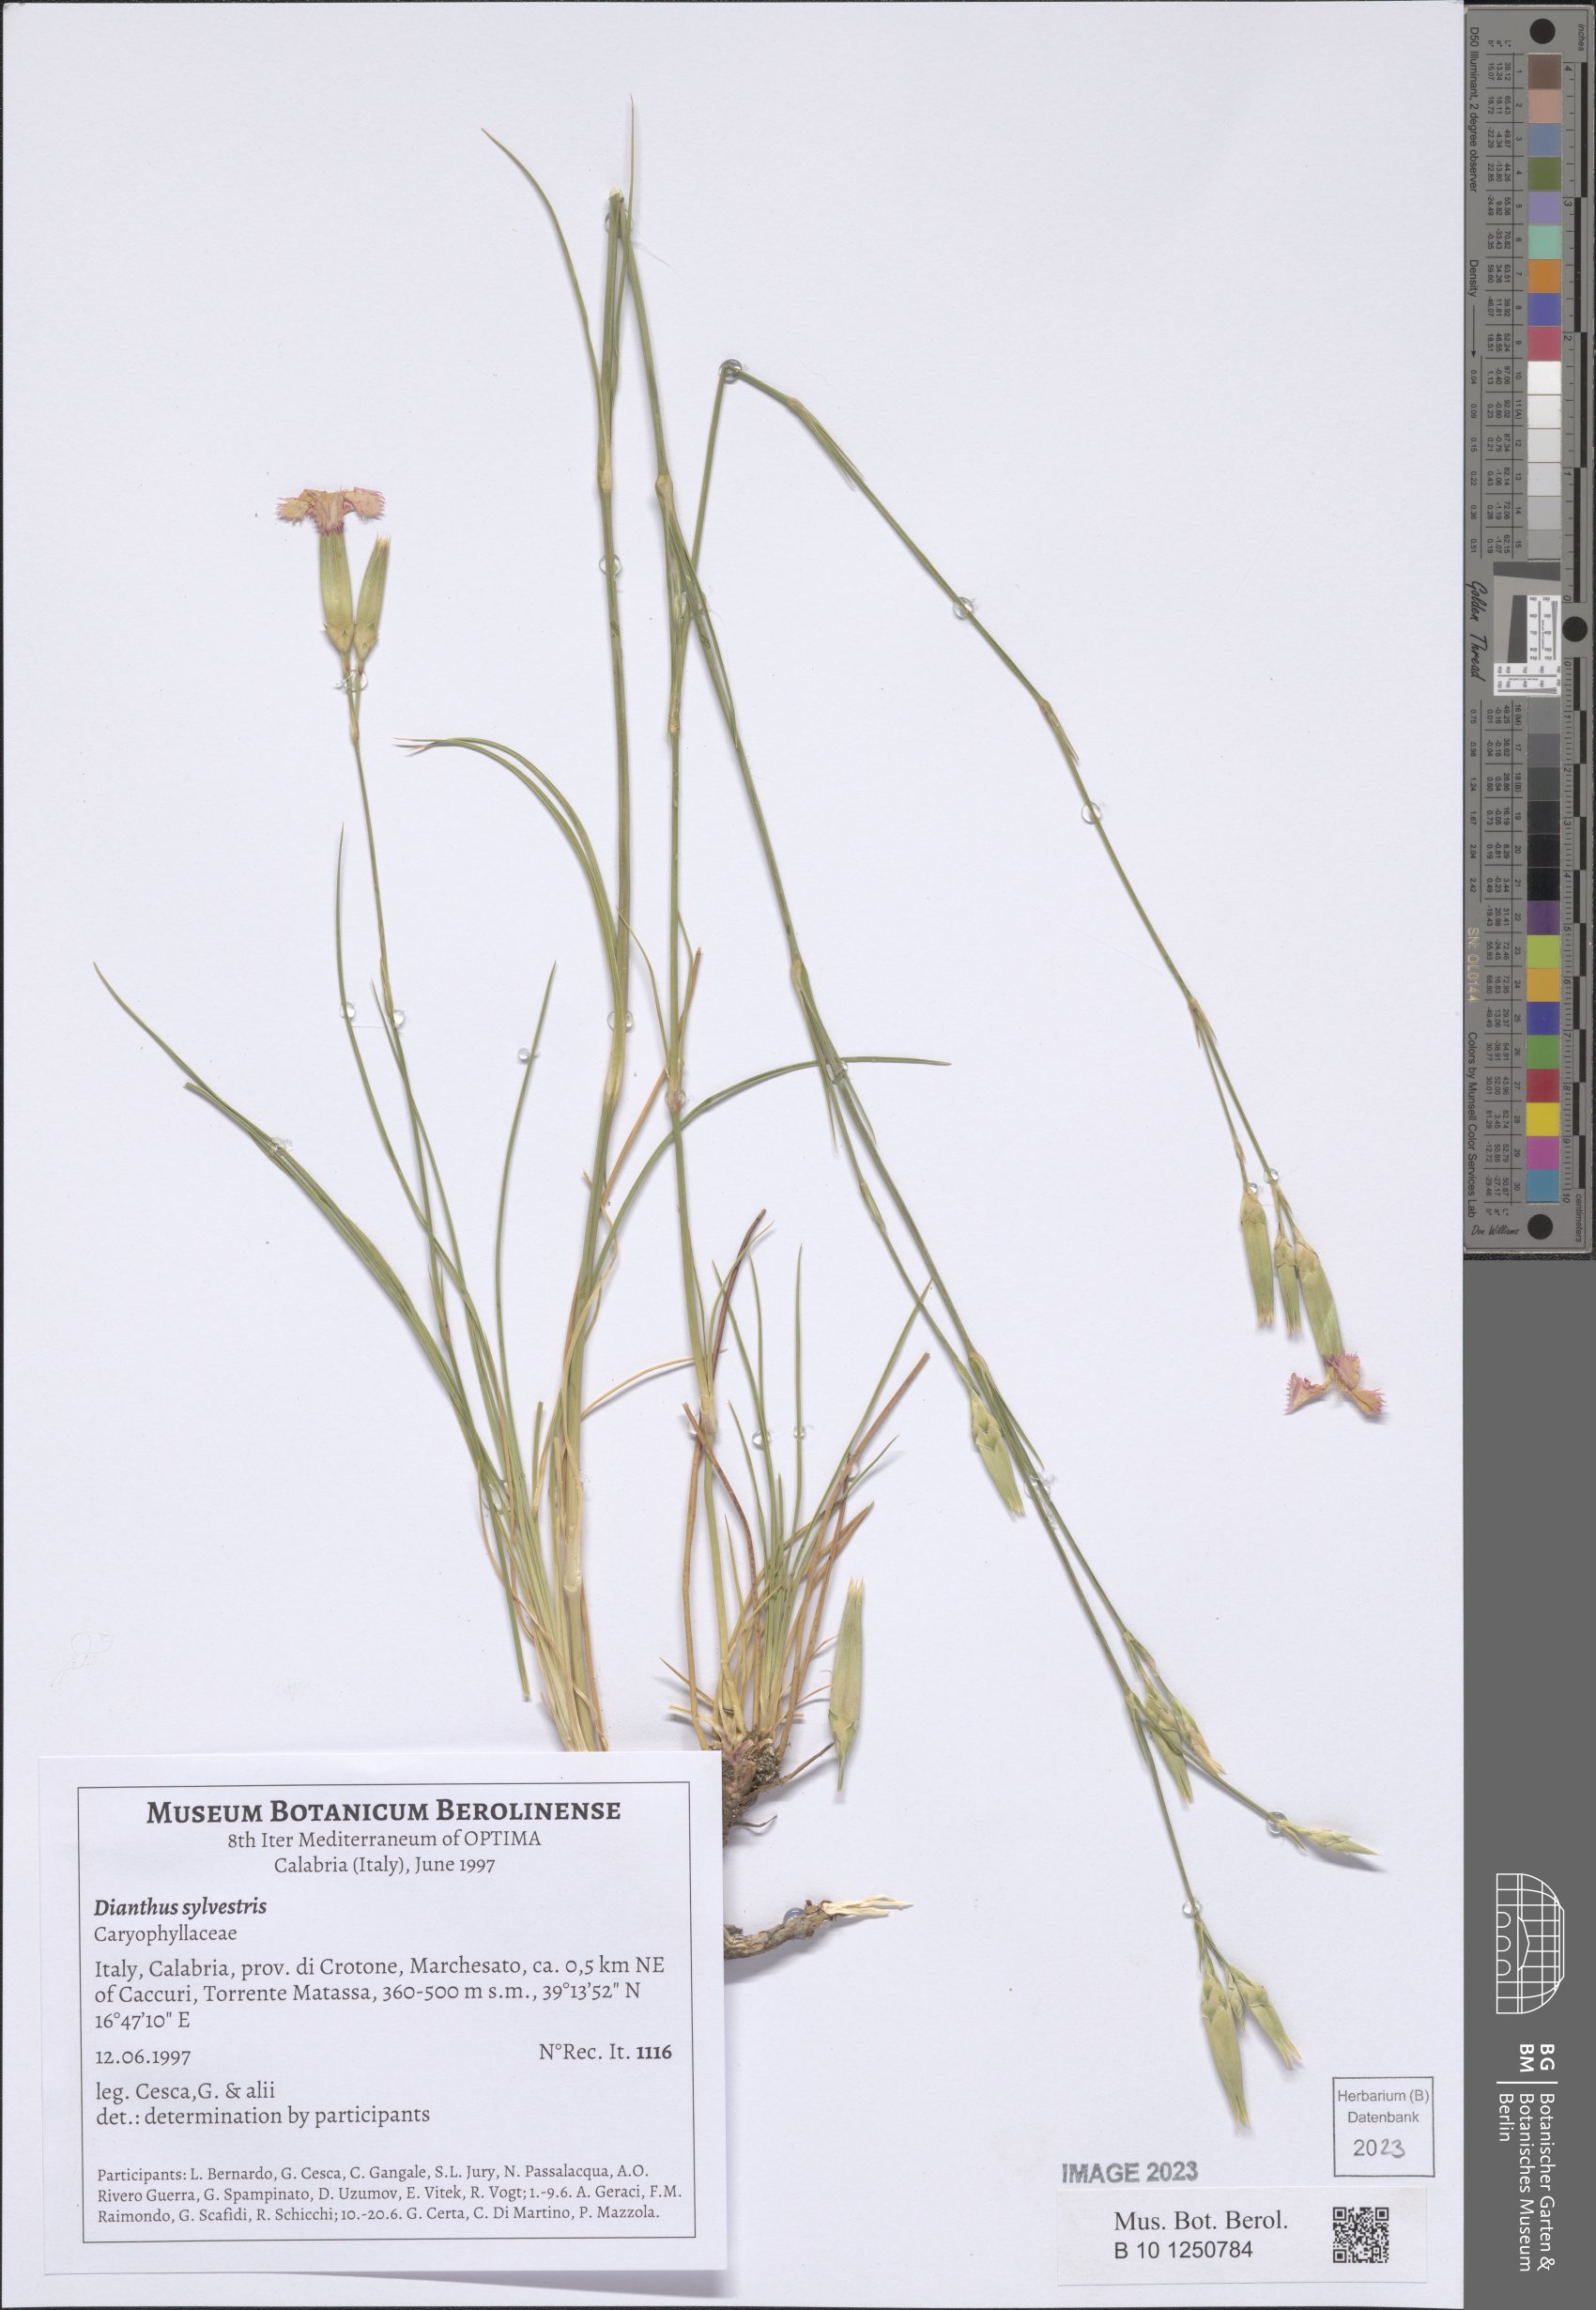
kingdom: Plantae
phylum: Tracheophyta
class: Magnoliopsida
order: Caryophyllales
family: Caryophyllaceae
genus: Dianthus
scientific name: Dianthus sylvestris
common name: Wood pink
